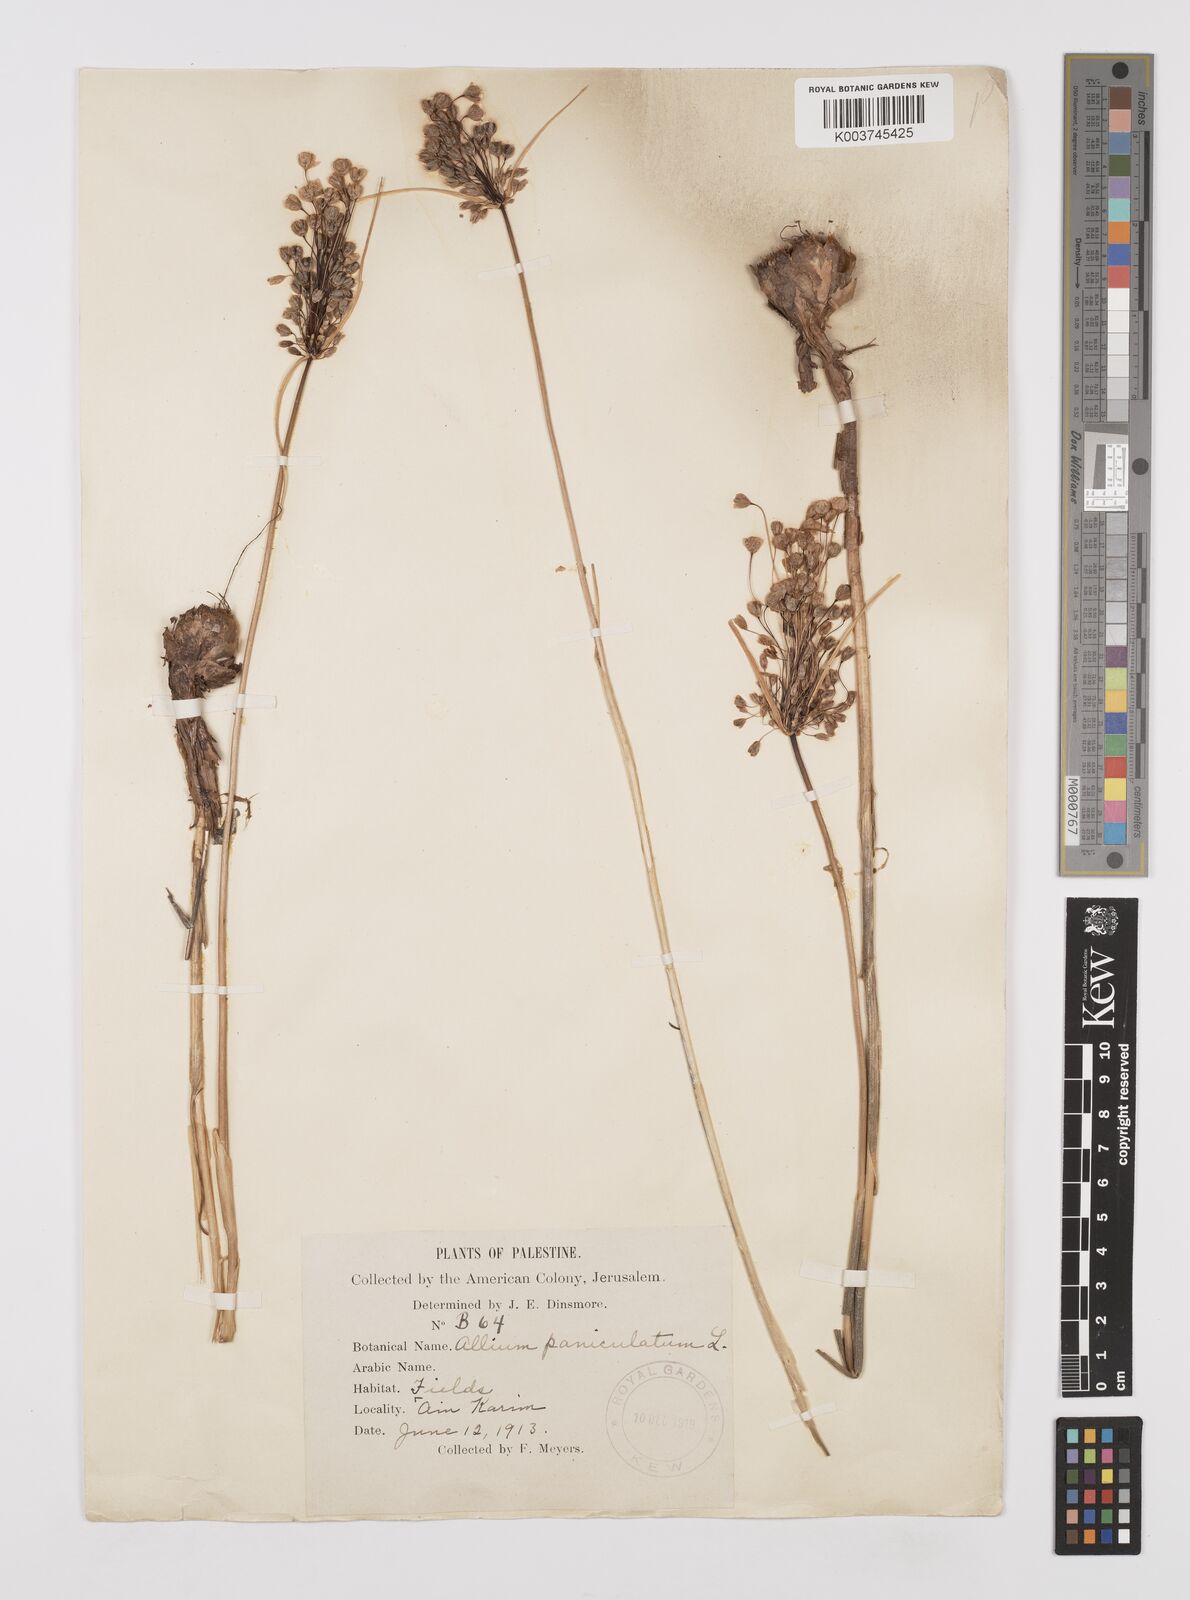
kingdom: Plantae
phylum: Tracheophyta
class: Liliopsida
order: Asparagales
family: Amaryllidaceae
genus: Allium
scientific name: Allium paniculatum
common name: Pale garlic
